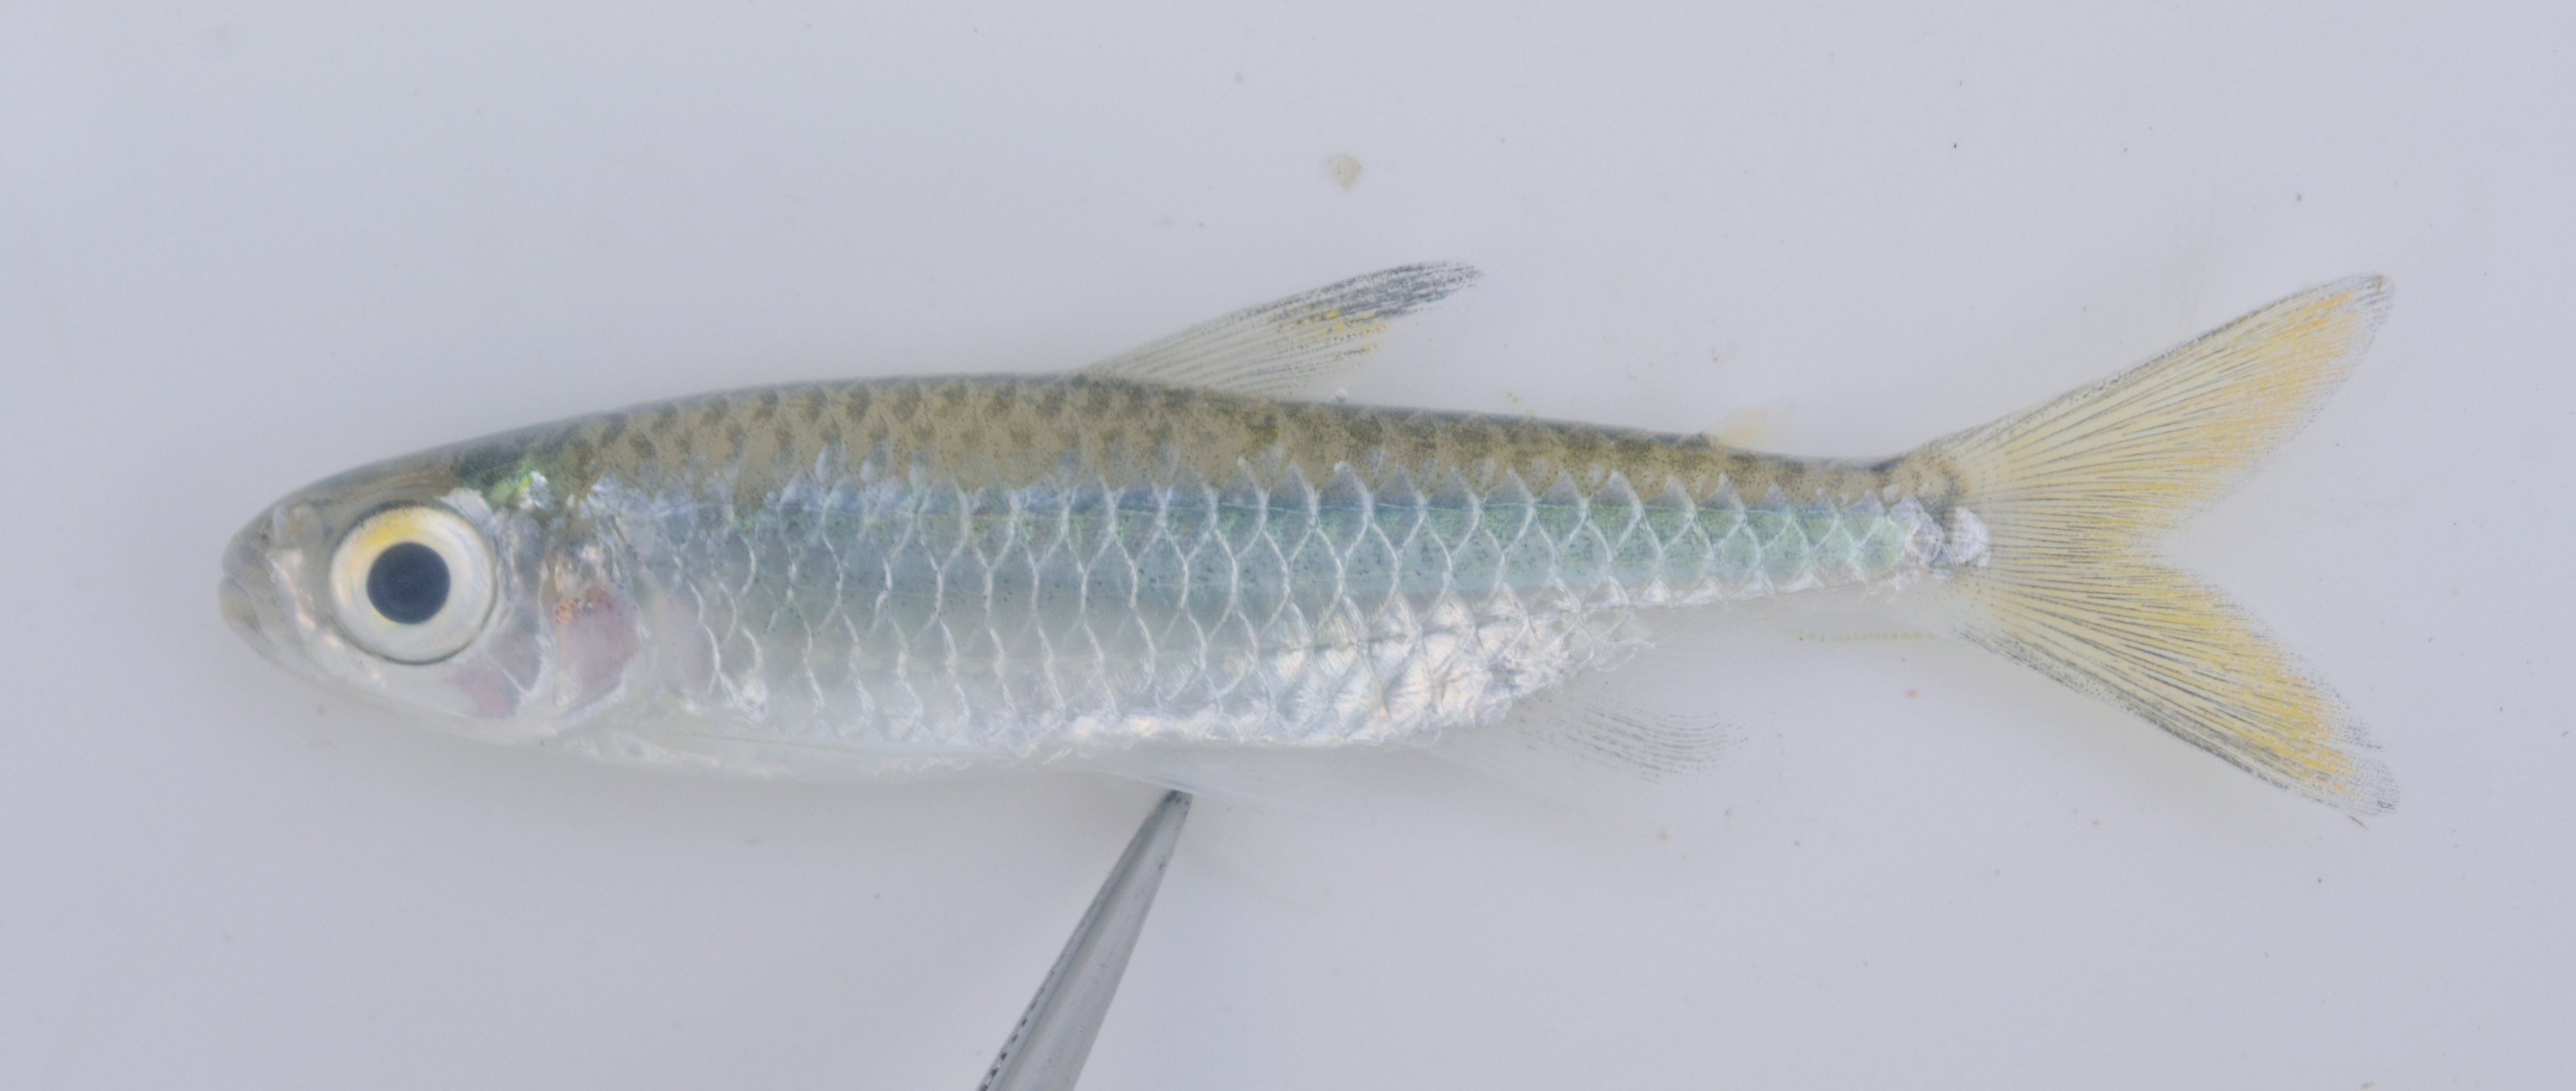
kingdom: Animalia
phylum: Chordata
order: Characiformes
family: Alestidae
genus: Micralestes
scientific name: Micralestes acutidens
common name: Silver robber
